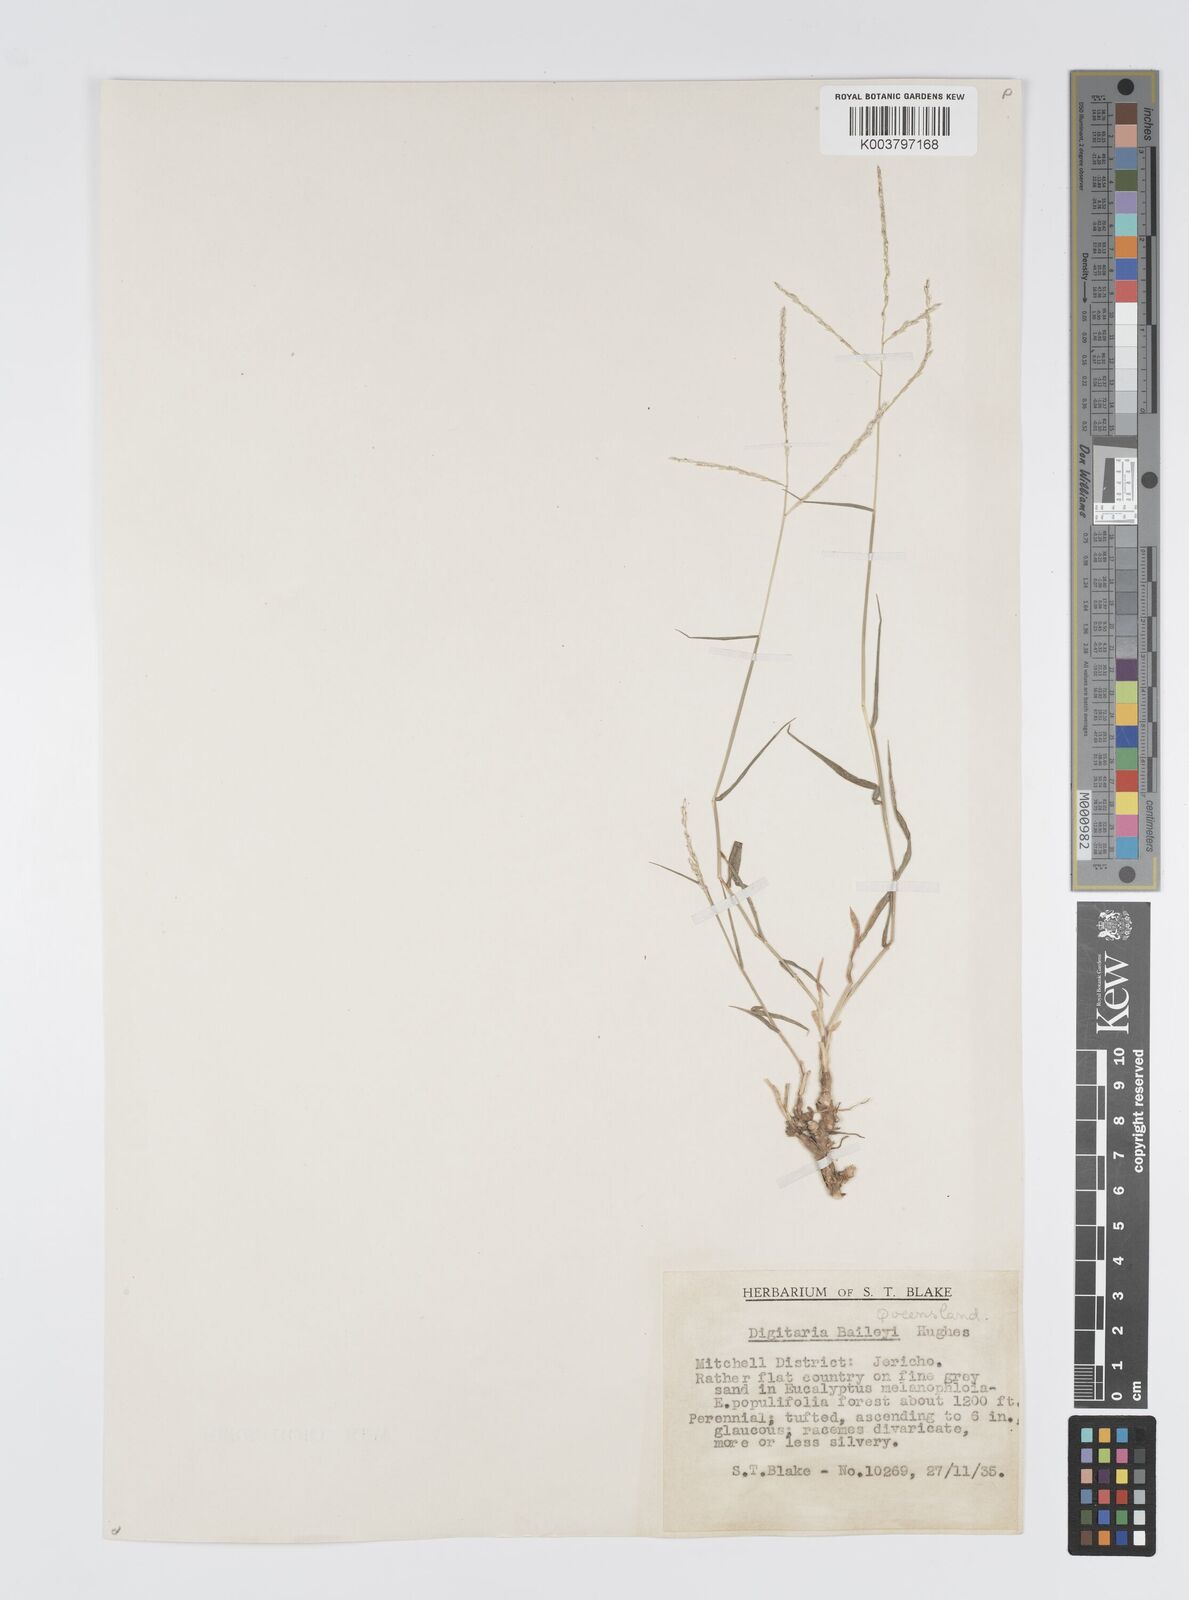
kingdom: Plantae
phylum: Tracheophyta
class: Liliopsida
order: Poales
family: Poaceae
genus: Digitaria
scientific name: Digitaria spec
